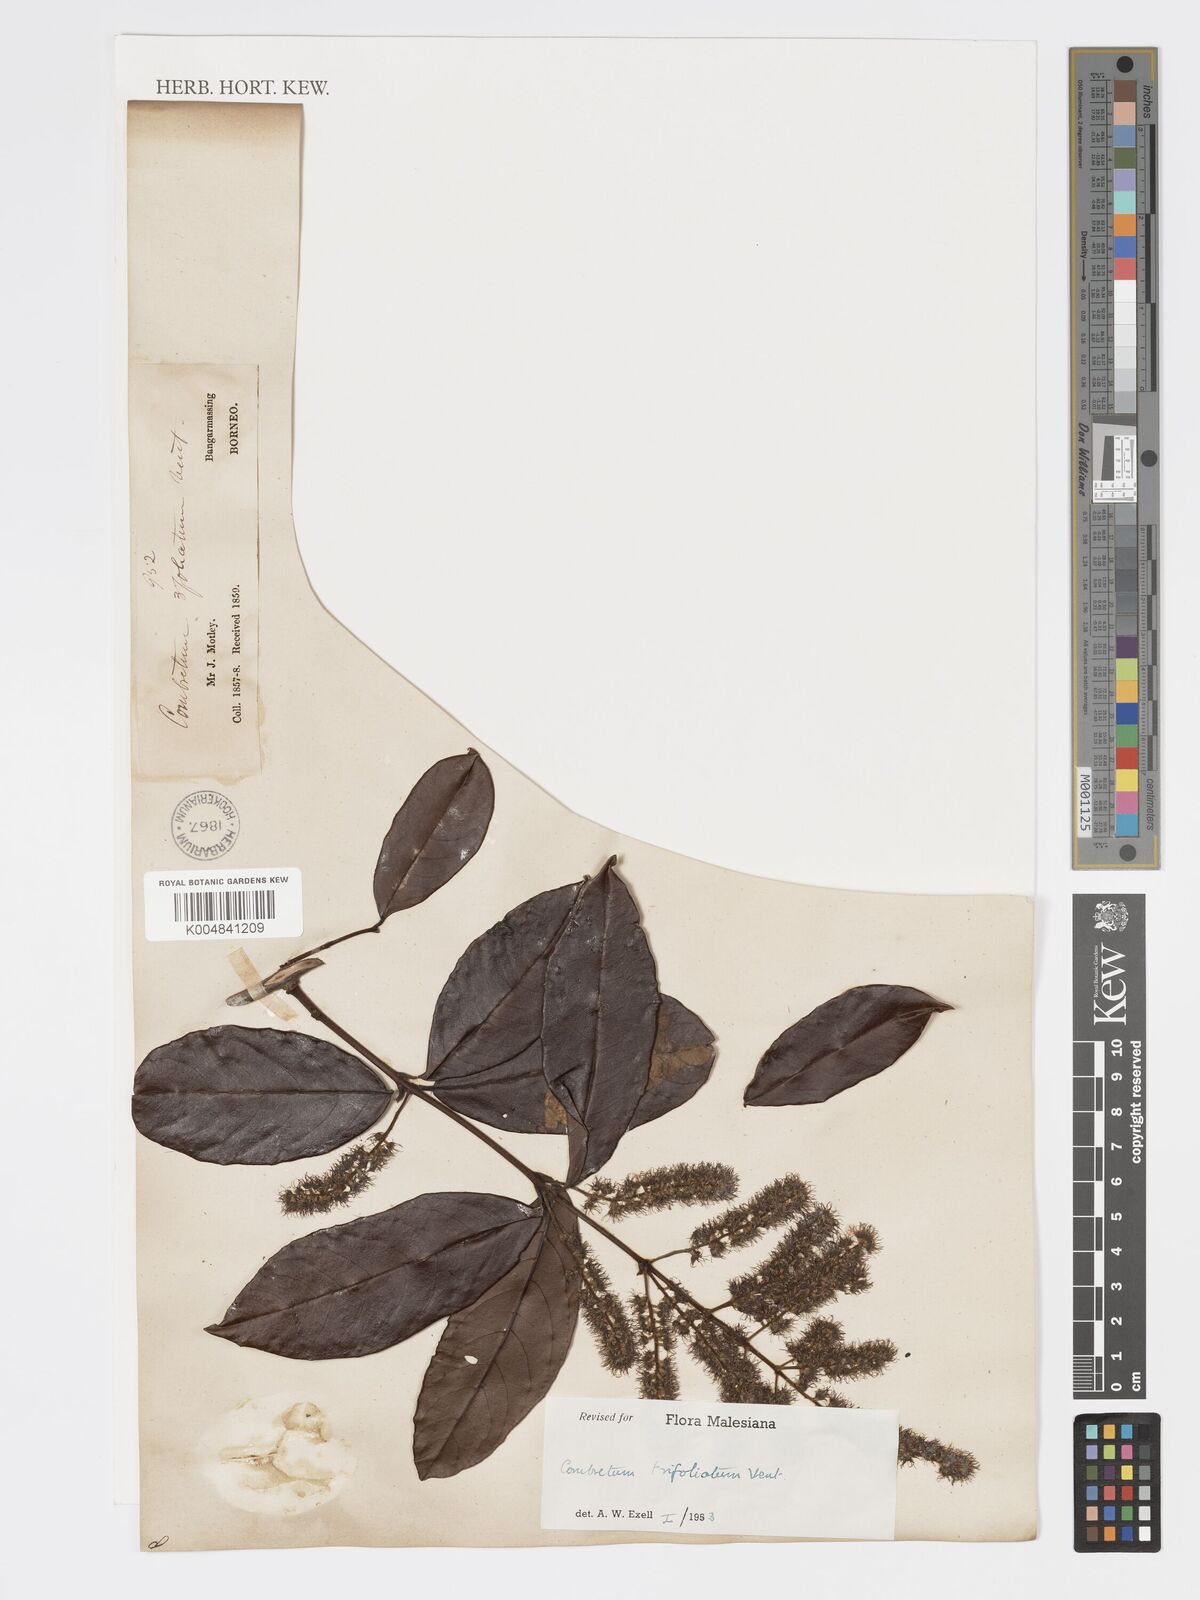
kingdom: Plantae
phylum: Tracheophyta
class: Magnoliopsida
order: Myrtales
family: Combretaceae
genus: Combretum
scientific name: Combretum trifoliatum
